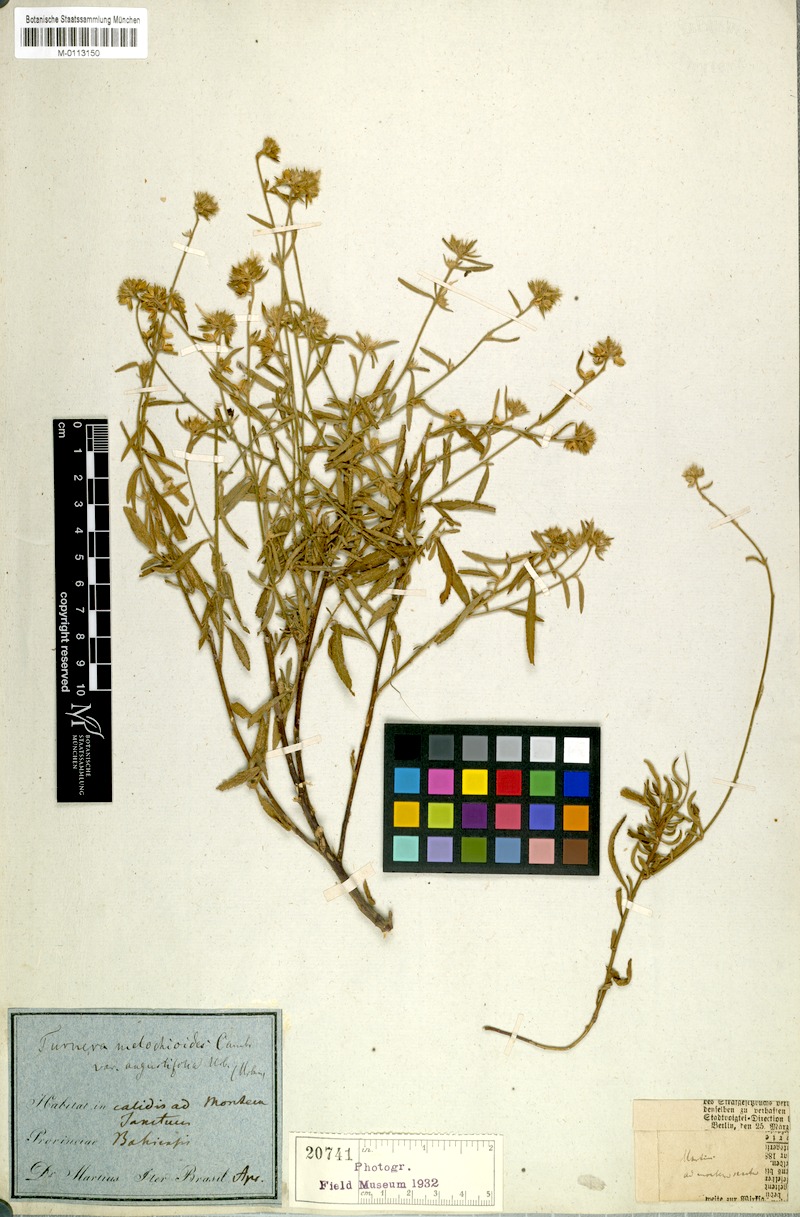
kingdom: Plantae
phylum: Tracheophyta
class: Magnoliopsida
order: Malpighiales
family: Turneraceae
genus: Turnera
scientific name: Turnera arenaria
